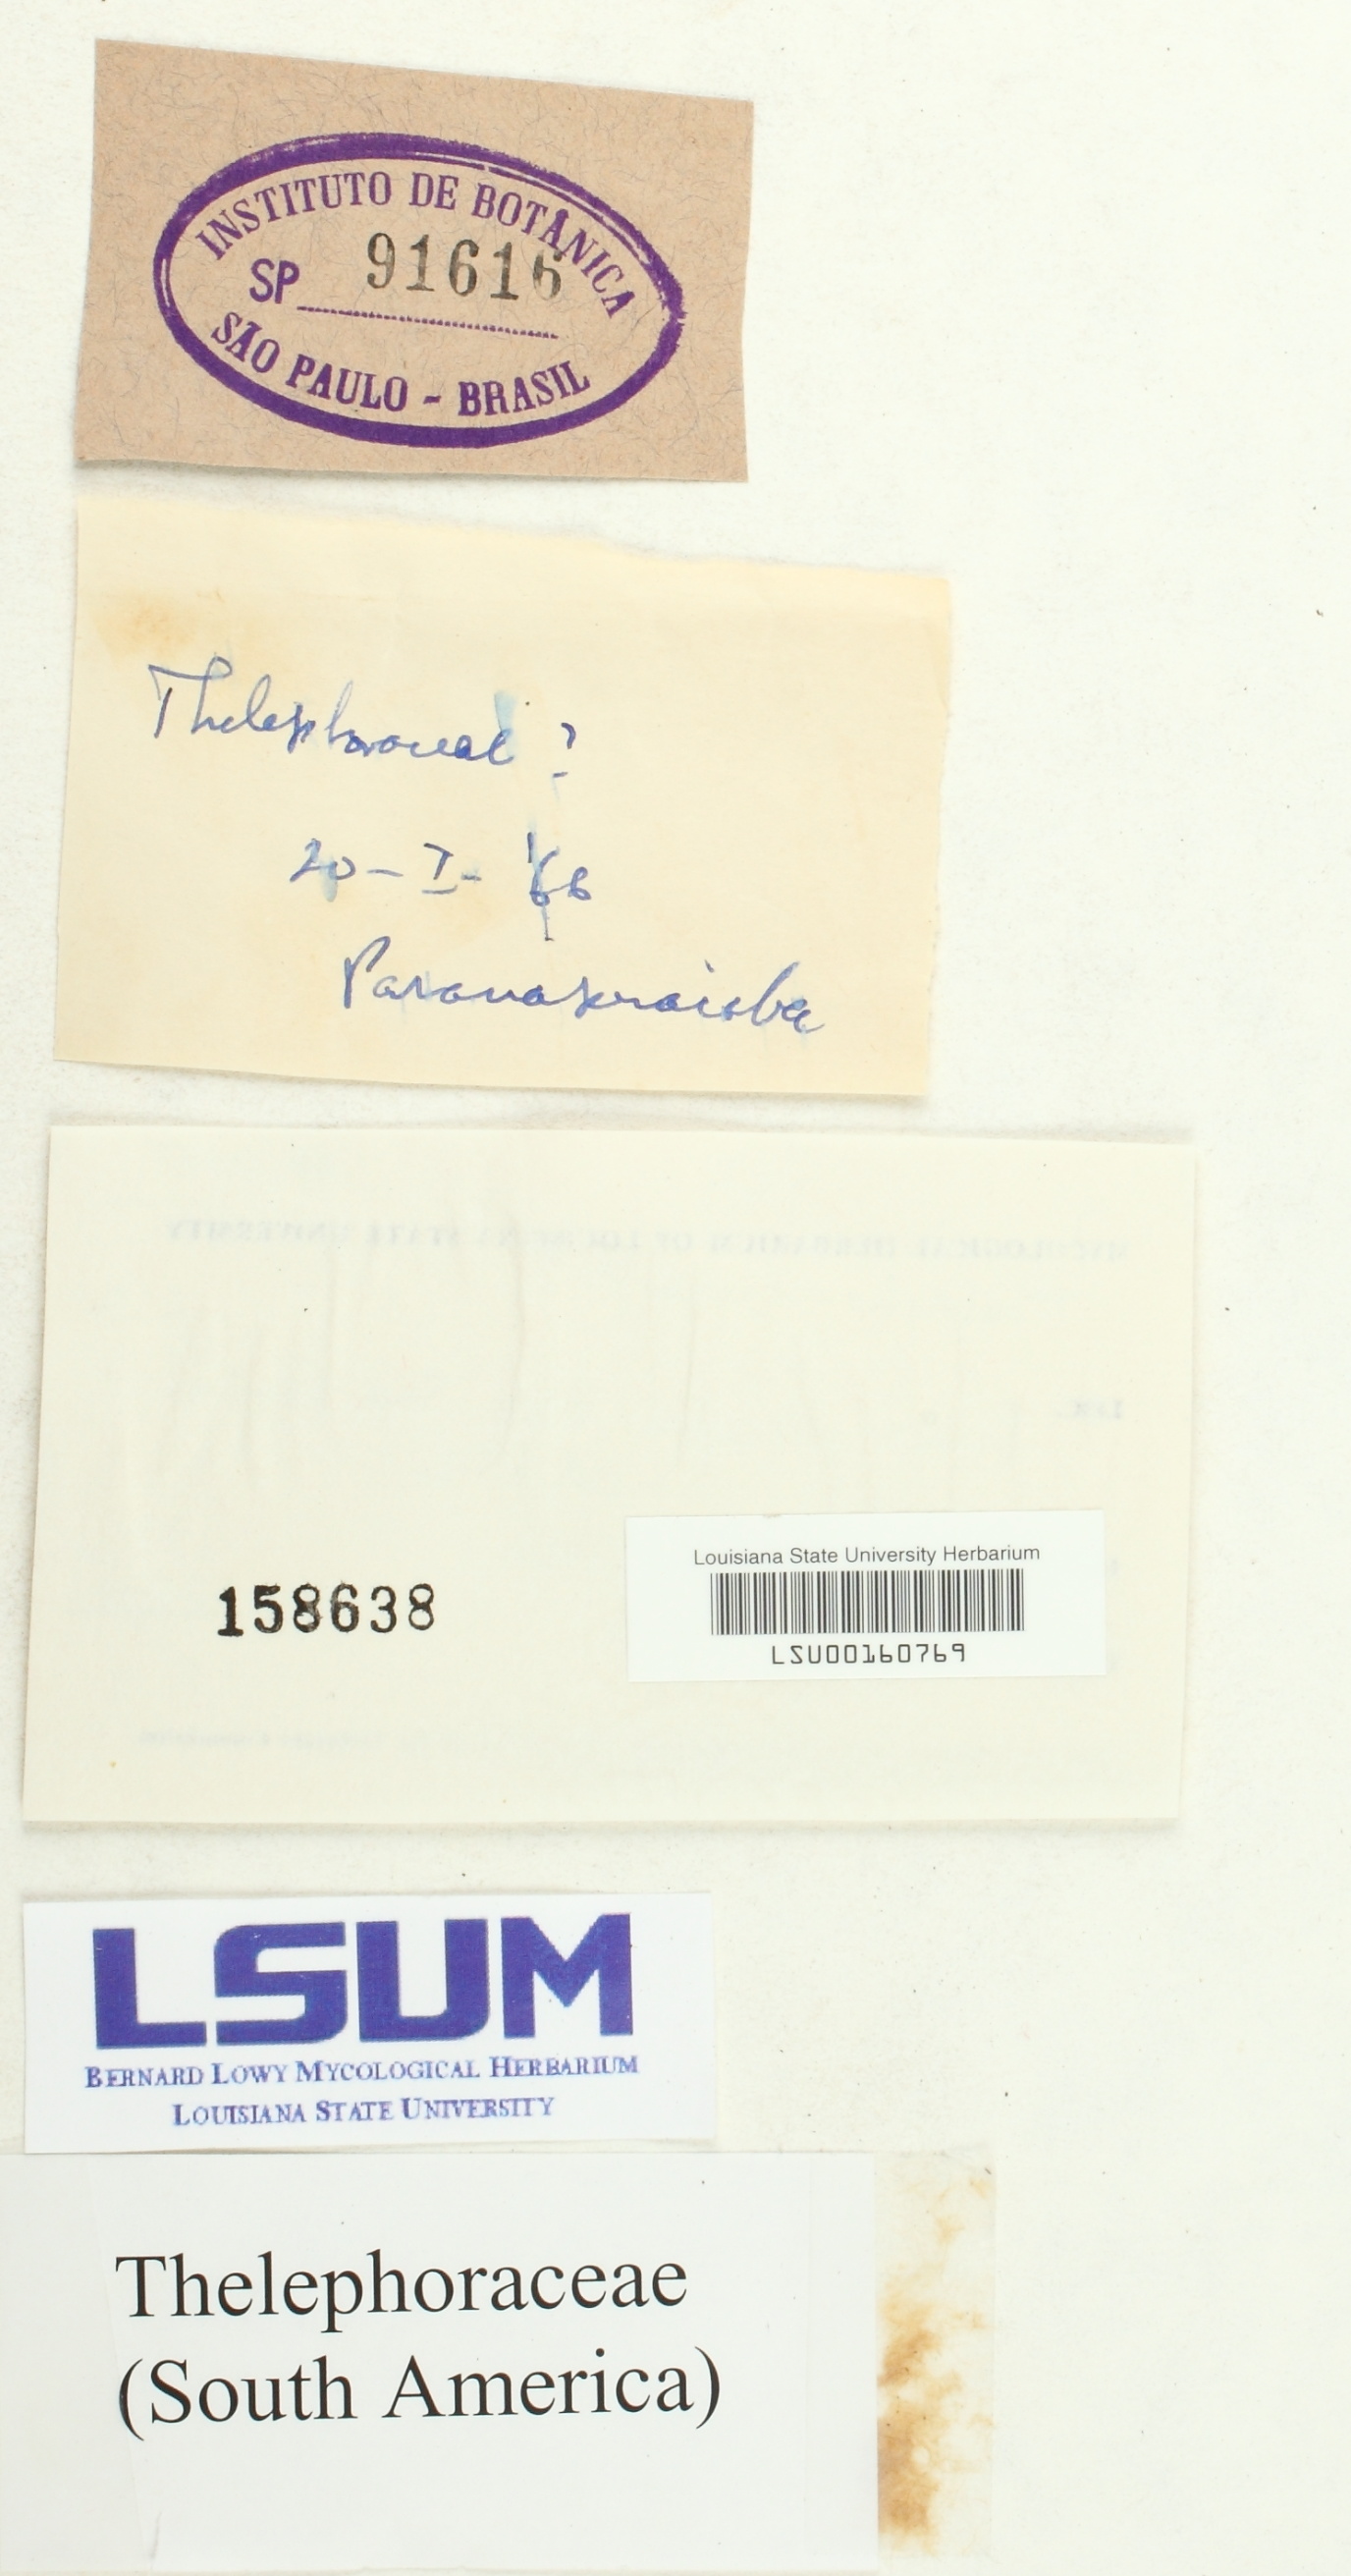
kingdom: Fungi
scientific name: Fungi
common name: Fungi
